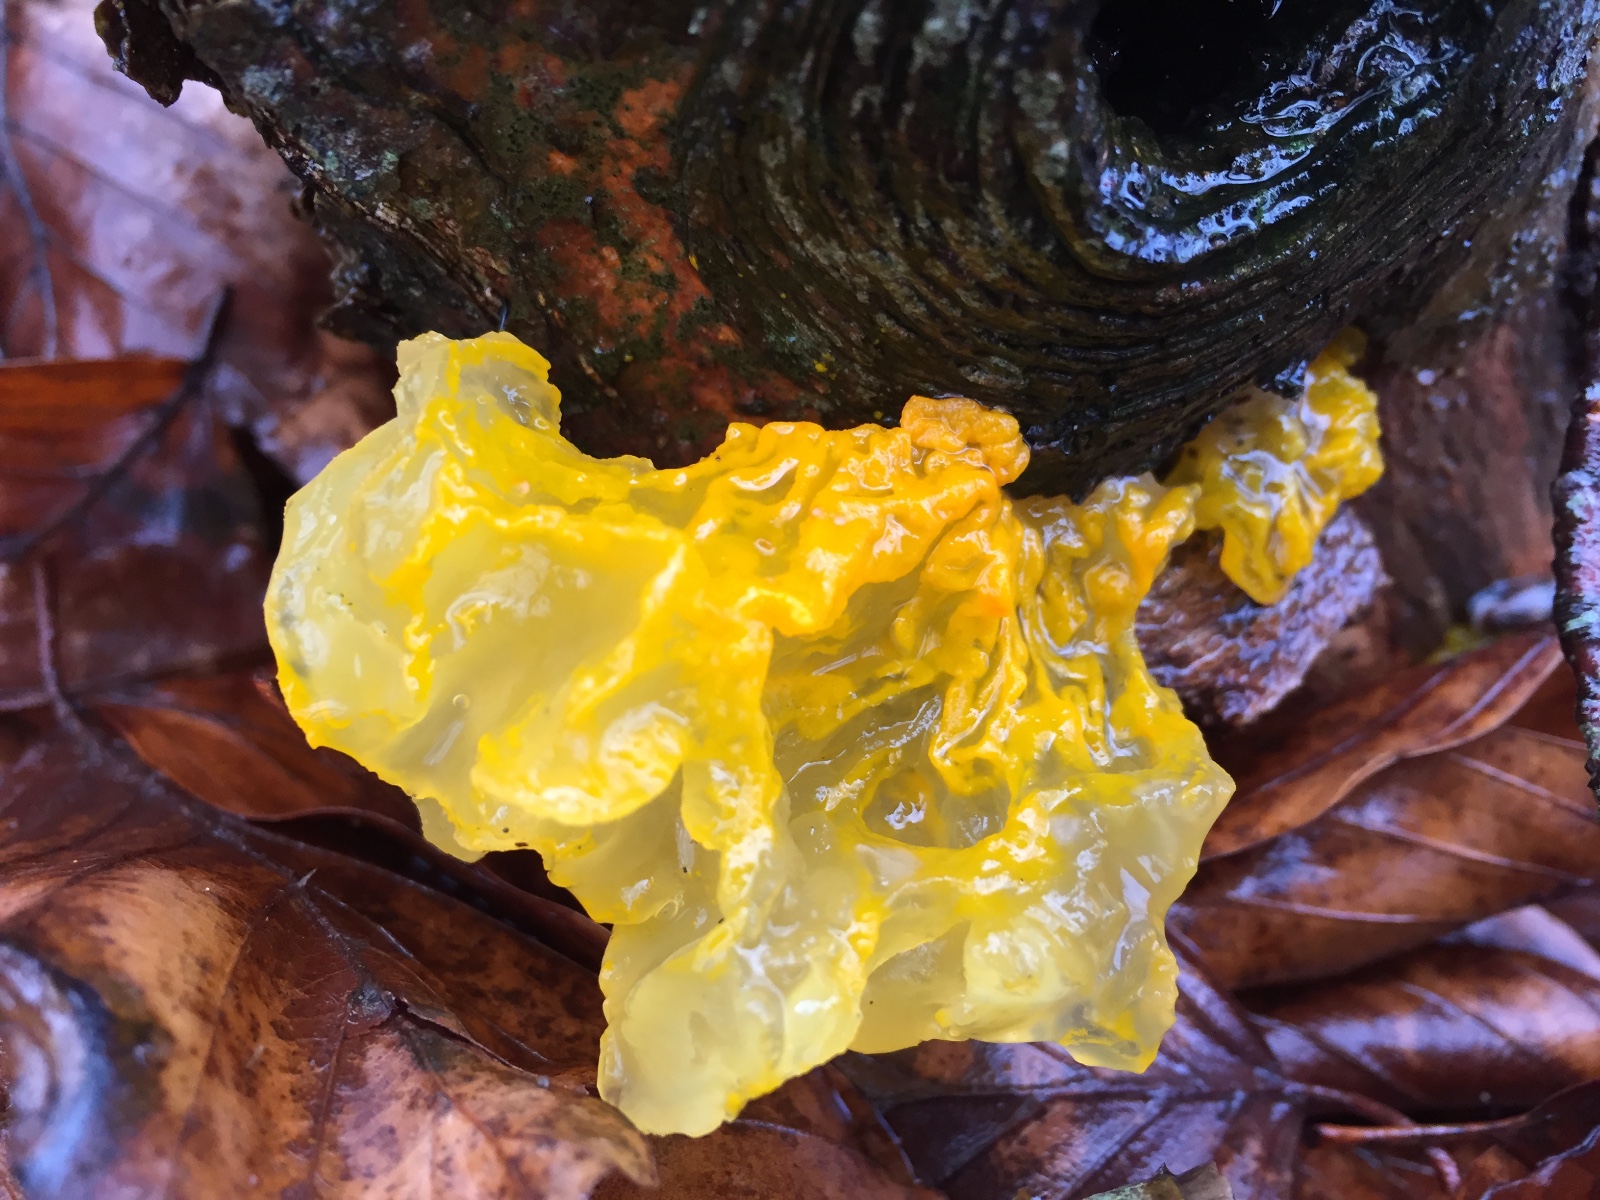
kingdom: Fungi
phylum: Basidiomycota
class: Tremellomycetes
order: Tremellales
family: Tremellaceae
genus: Tremella
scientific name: Tremella mesenterica
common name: gul bævresvamp
